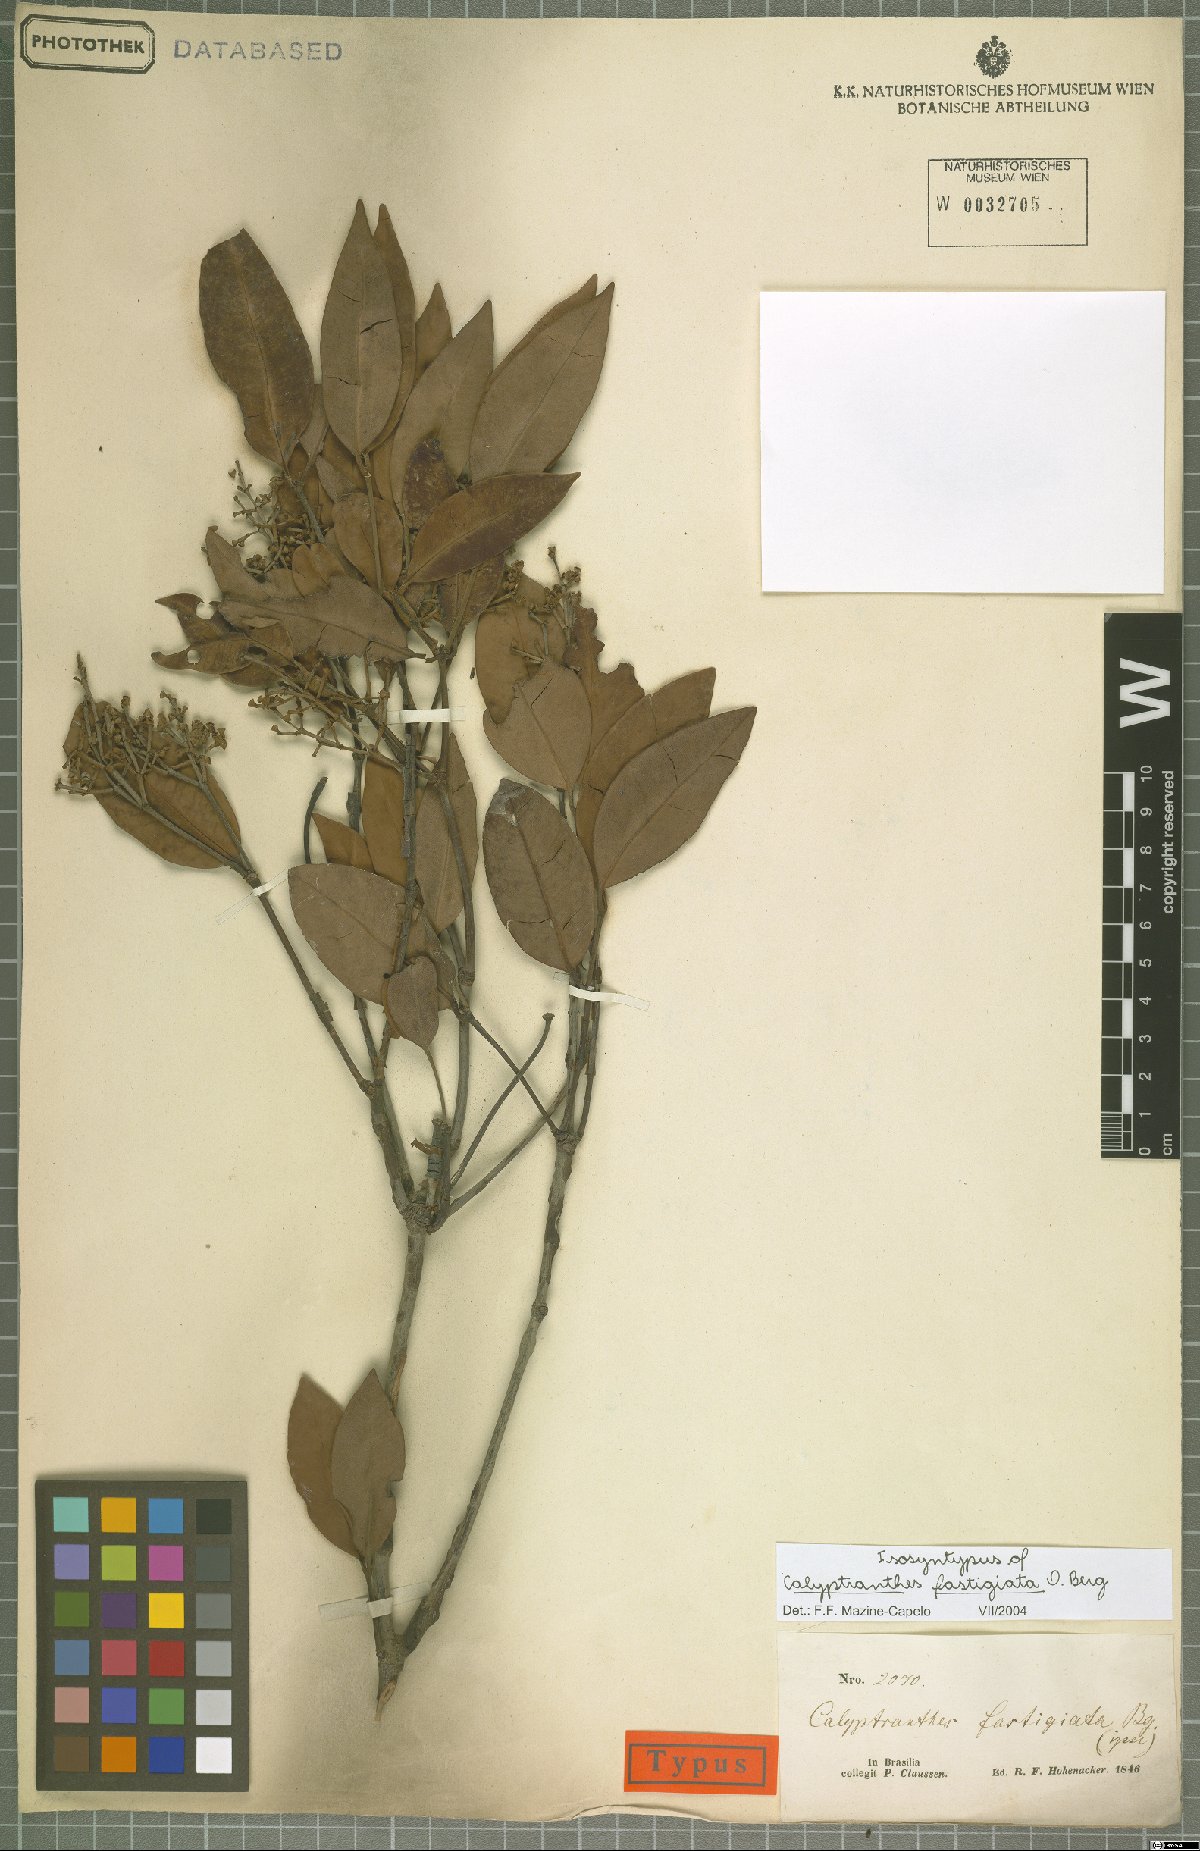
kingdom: Plantae
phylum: Tracheophyta
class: Magnoliopsida
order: Myrtales
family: Myrtaceae
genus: Myrcia
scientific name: Myrcia loranthifolia
